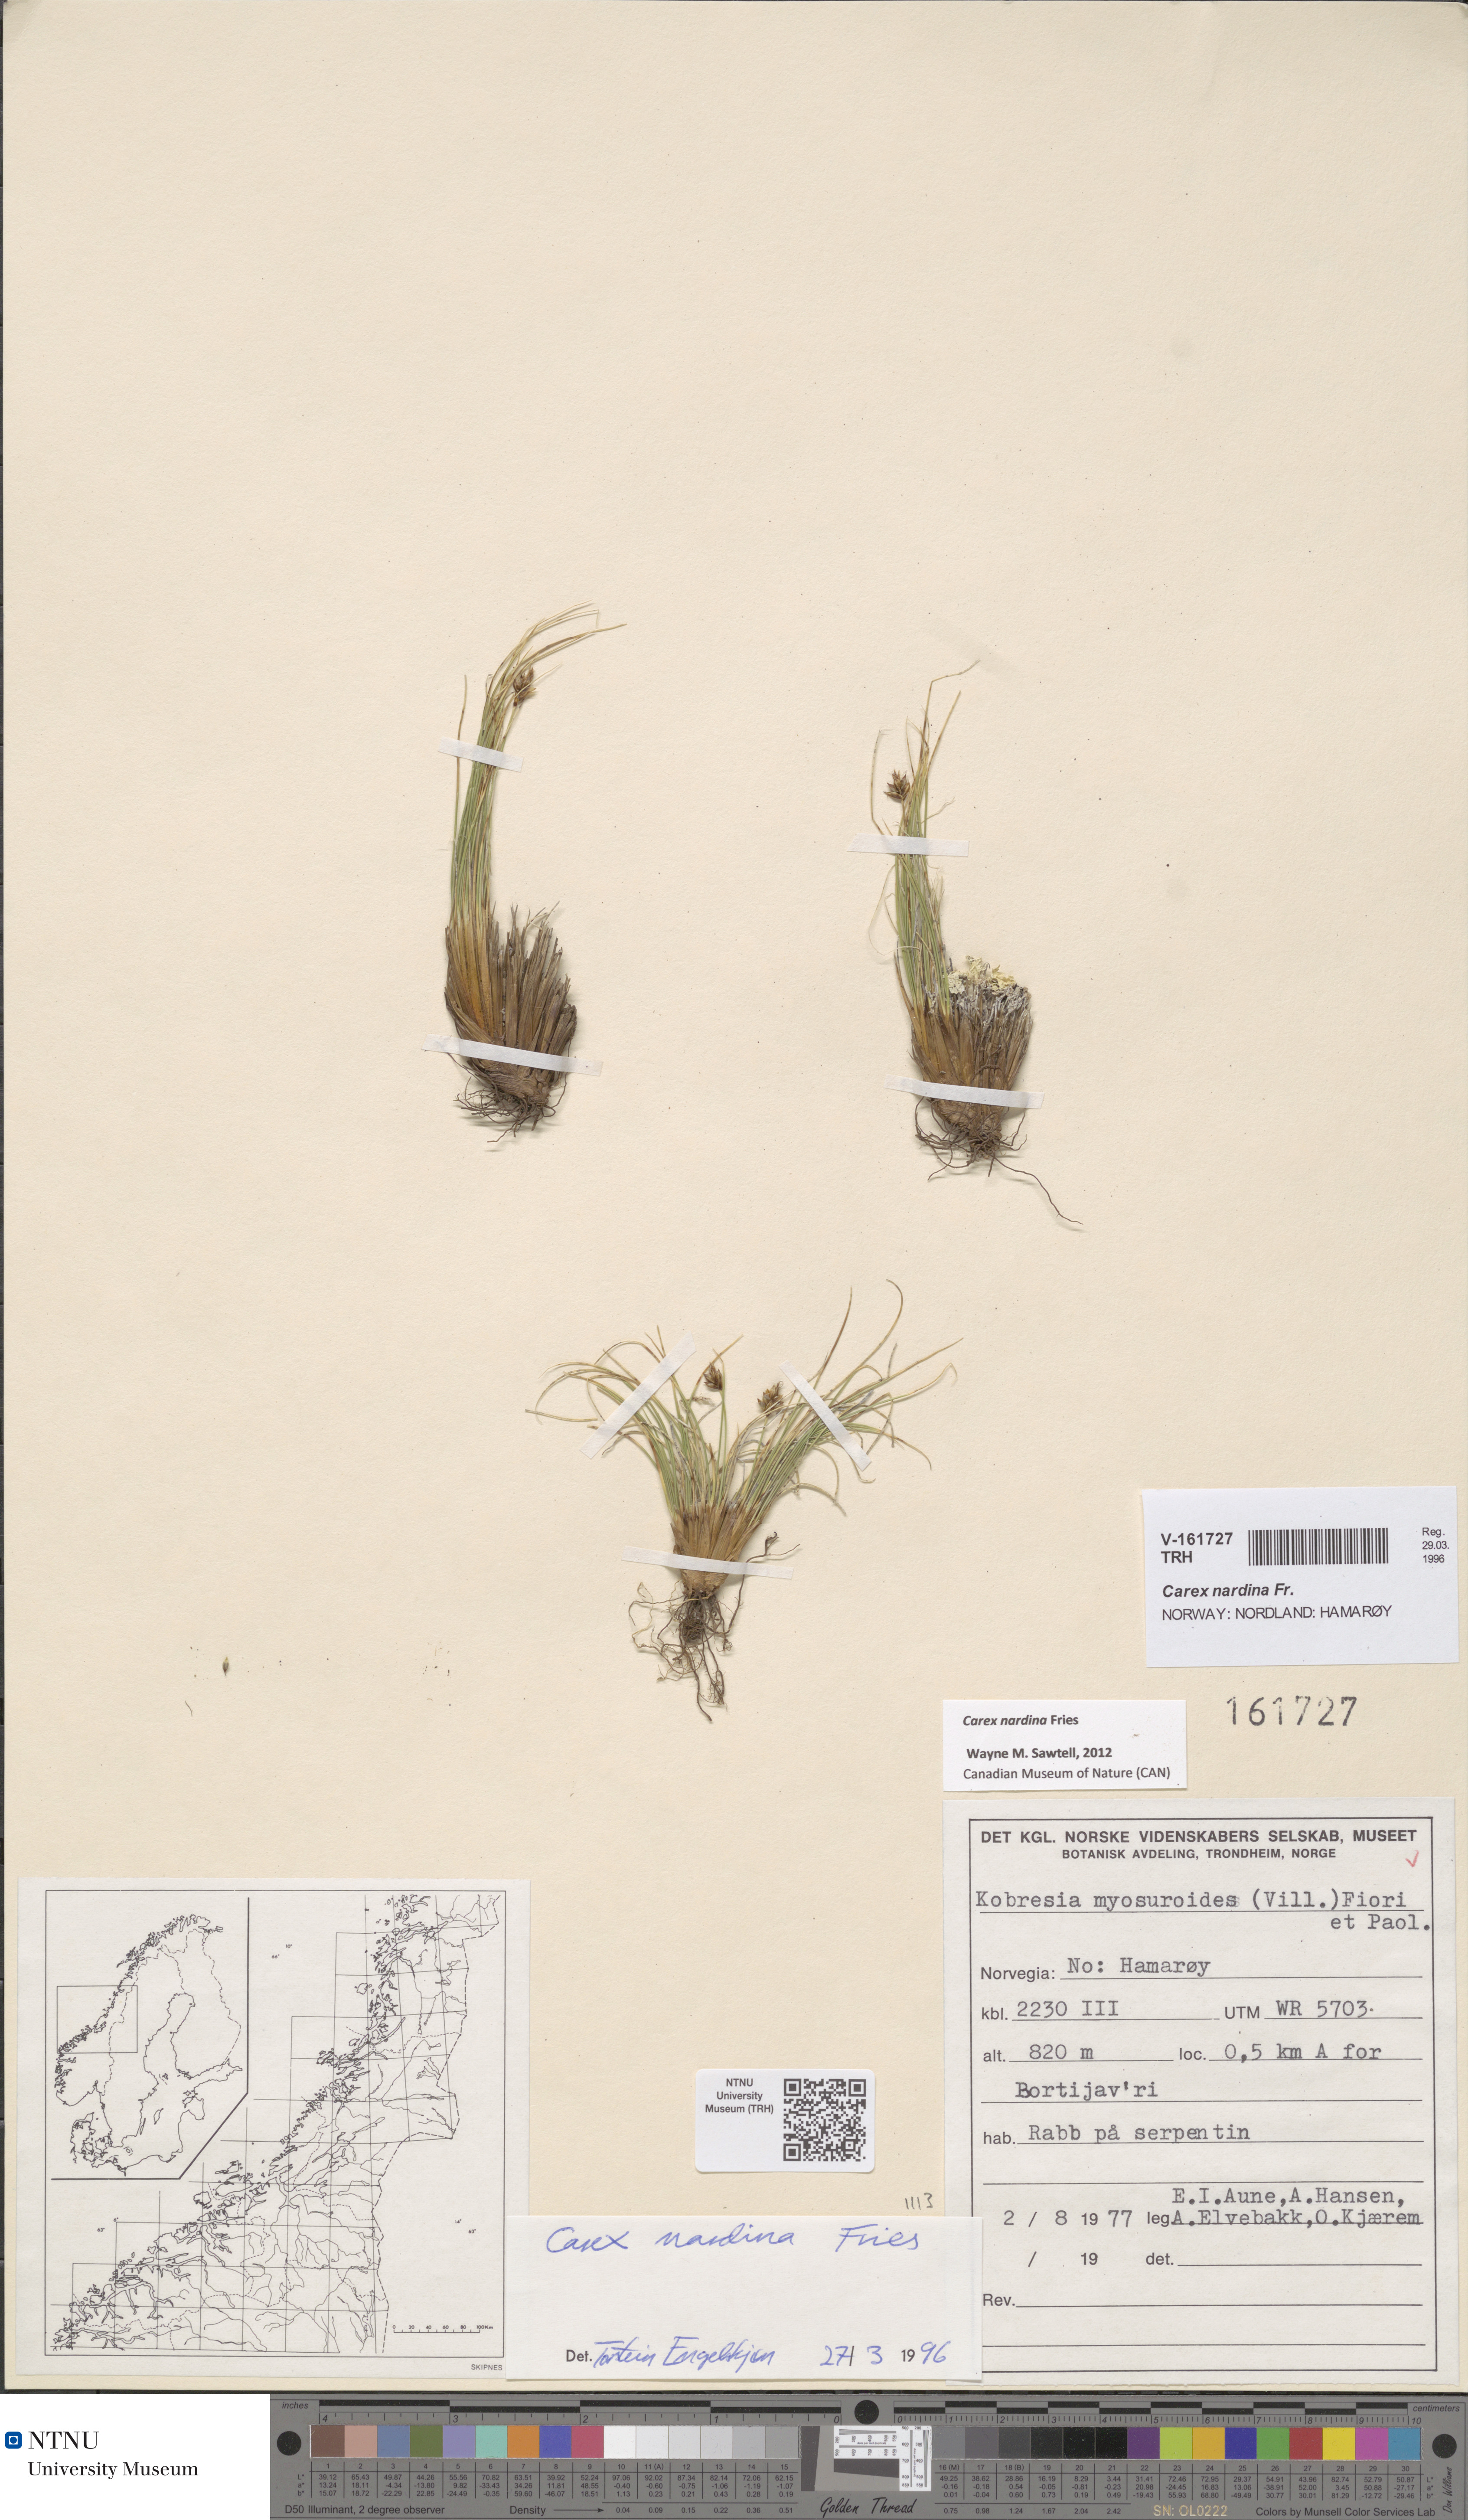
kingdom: Plantae
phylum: Tracheophyta
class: Liliopsida
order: Poales
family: Cyperaceae
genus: Carex
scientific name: Carex nardina
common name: Nard sedge
